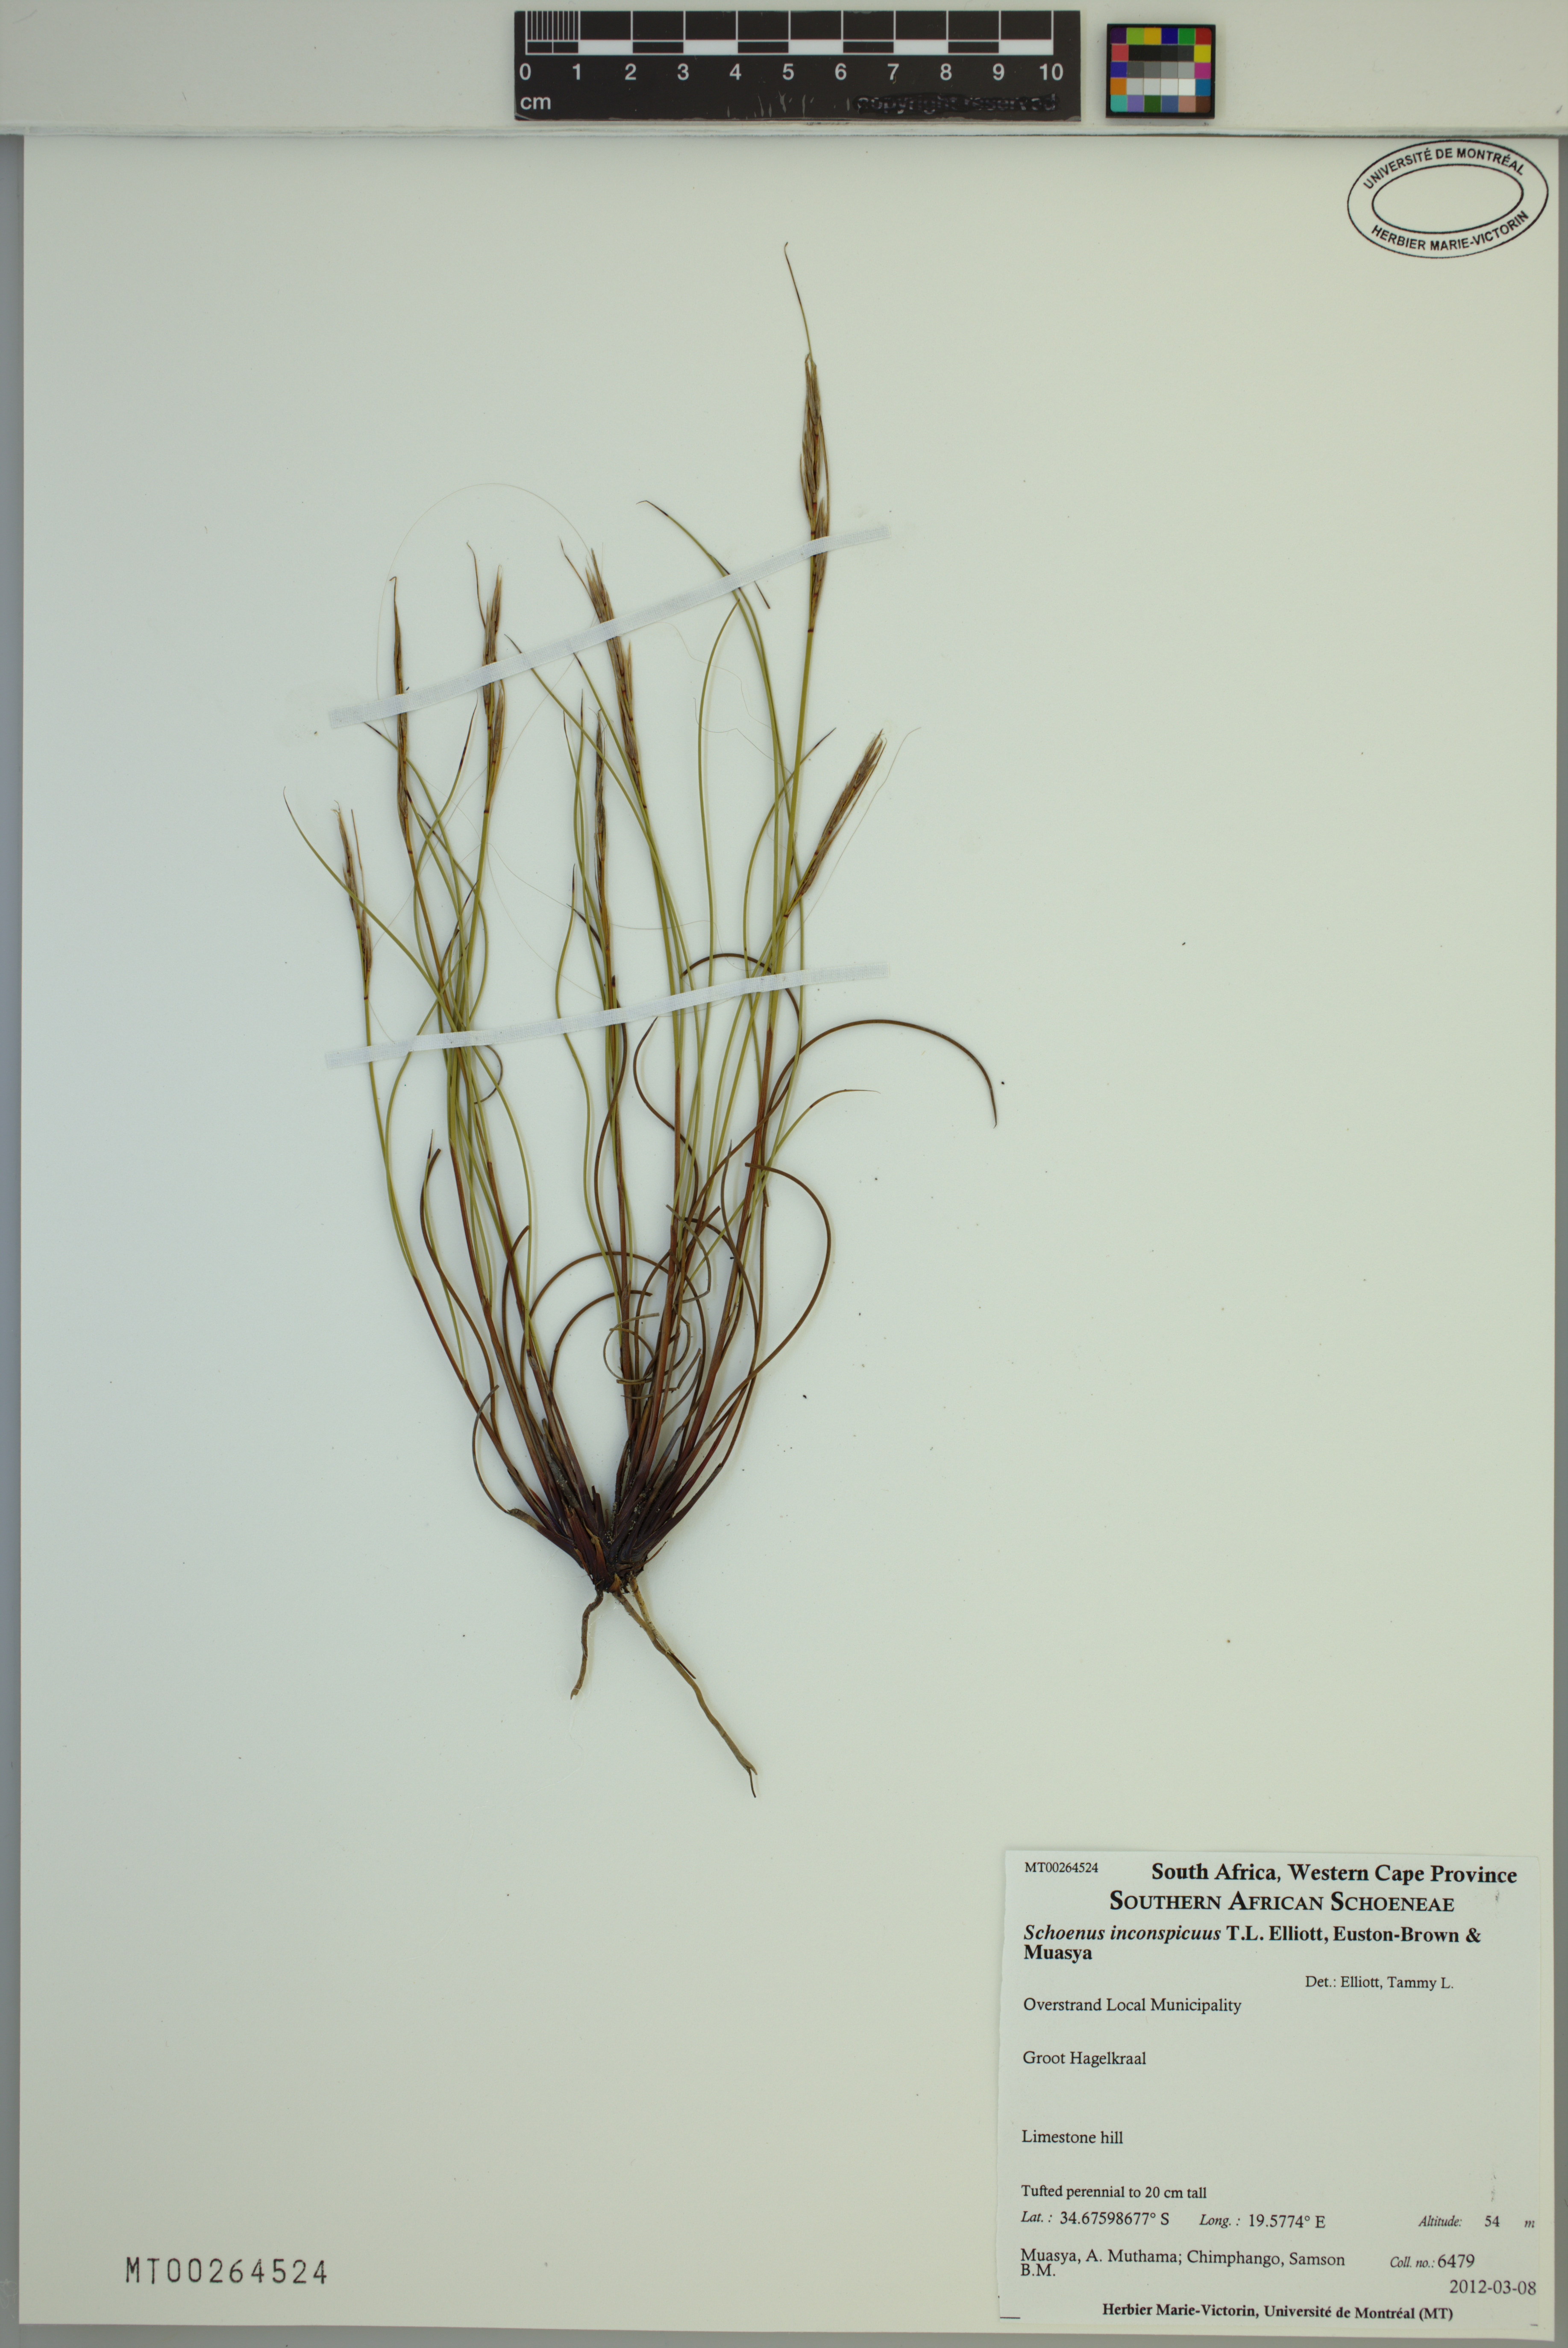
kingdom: Plantae
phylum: Tracheophyta
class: Liliopsida
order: Poales
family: Cyperaceae
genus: Schoenus
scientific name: Schoenus inconspicuus
